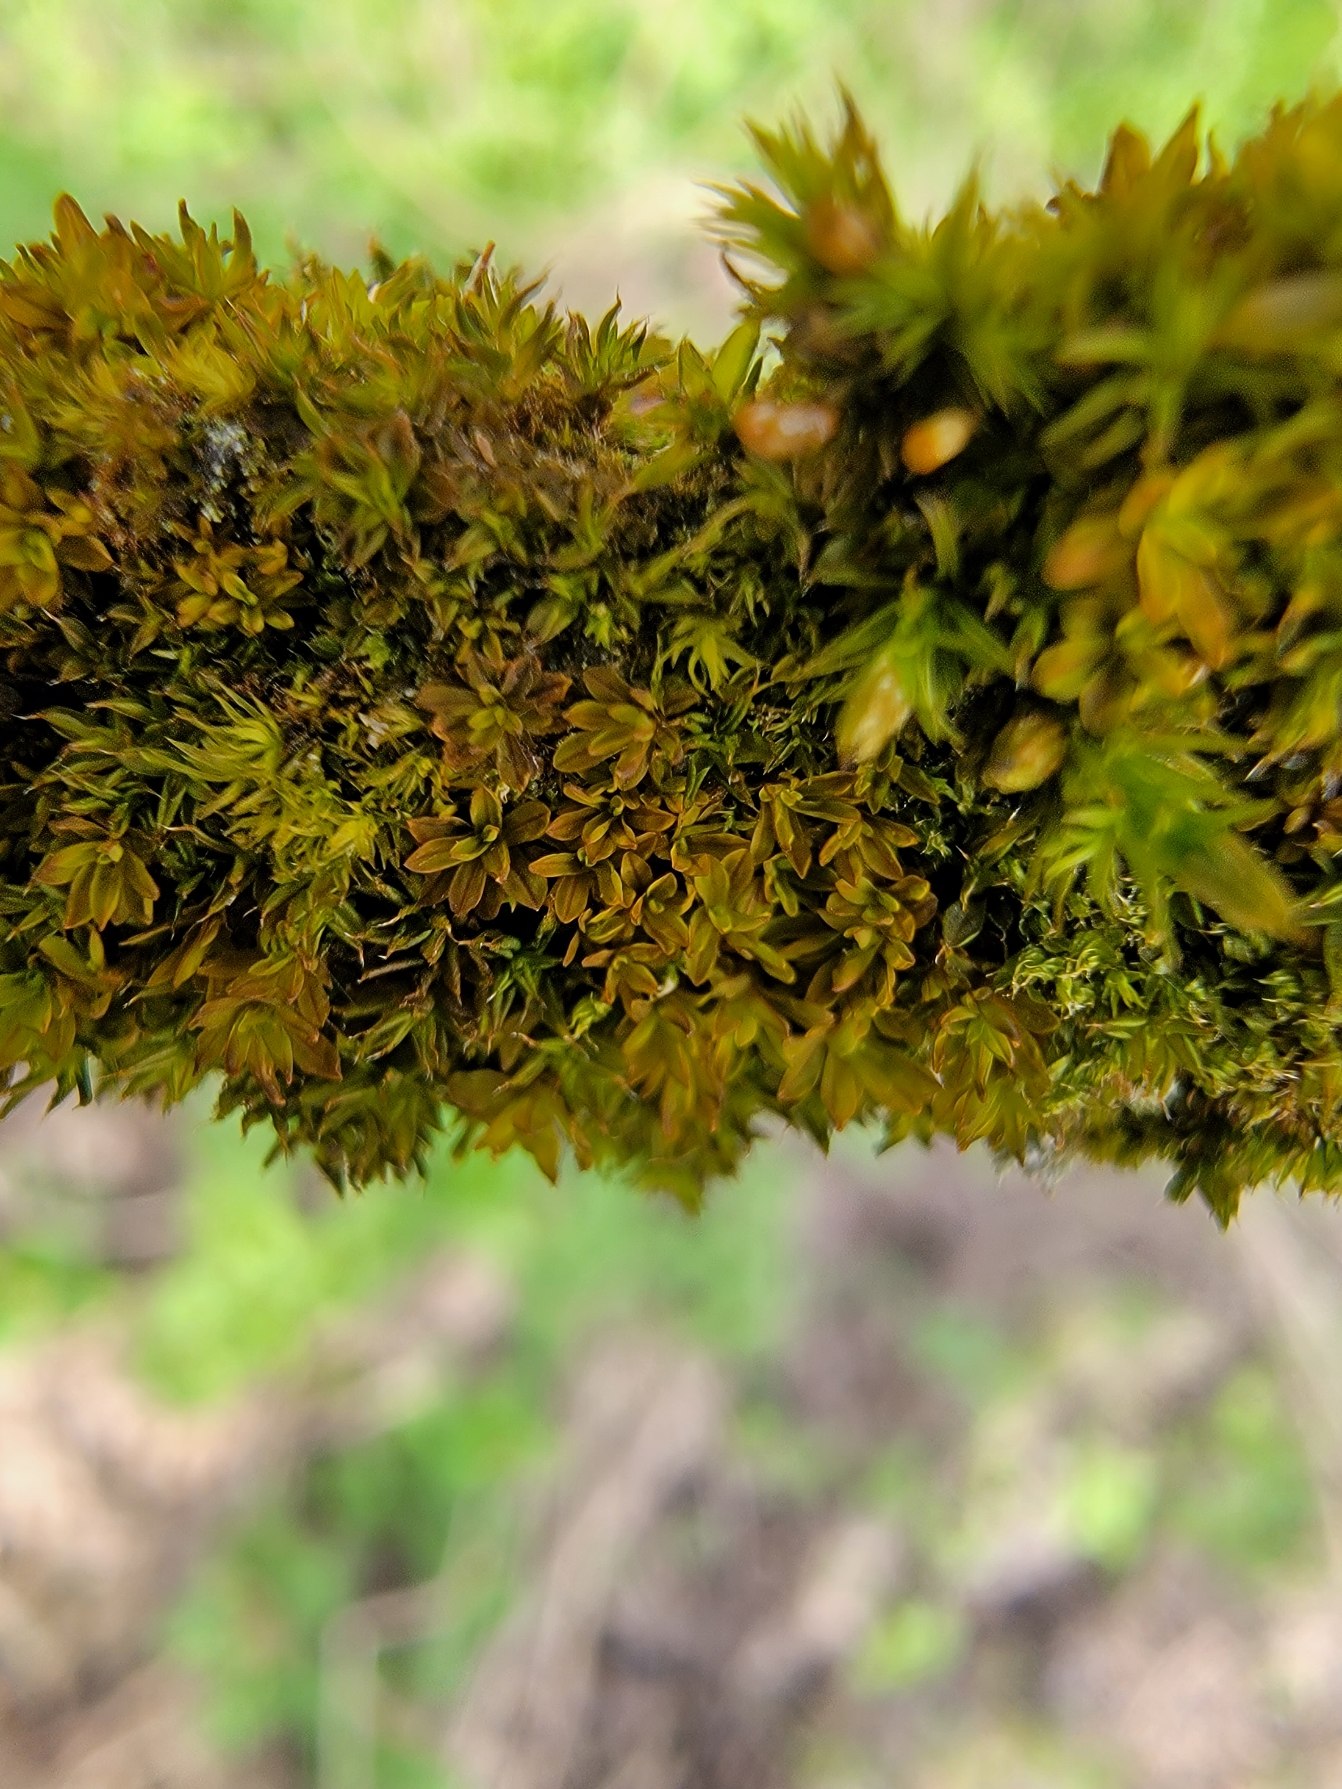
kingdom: Plantae
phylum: Bryophyta
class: Bryopsida
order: Pottiales
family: Pottiaceae
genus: Syntrichia
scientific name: Syntrichia latifolia
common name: Butbladet hårstjerne
